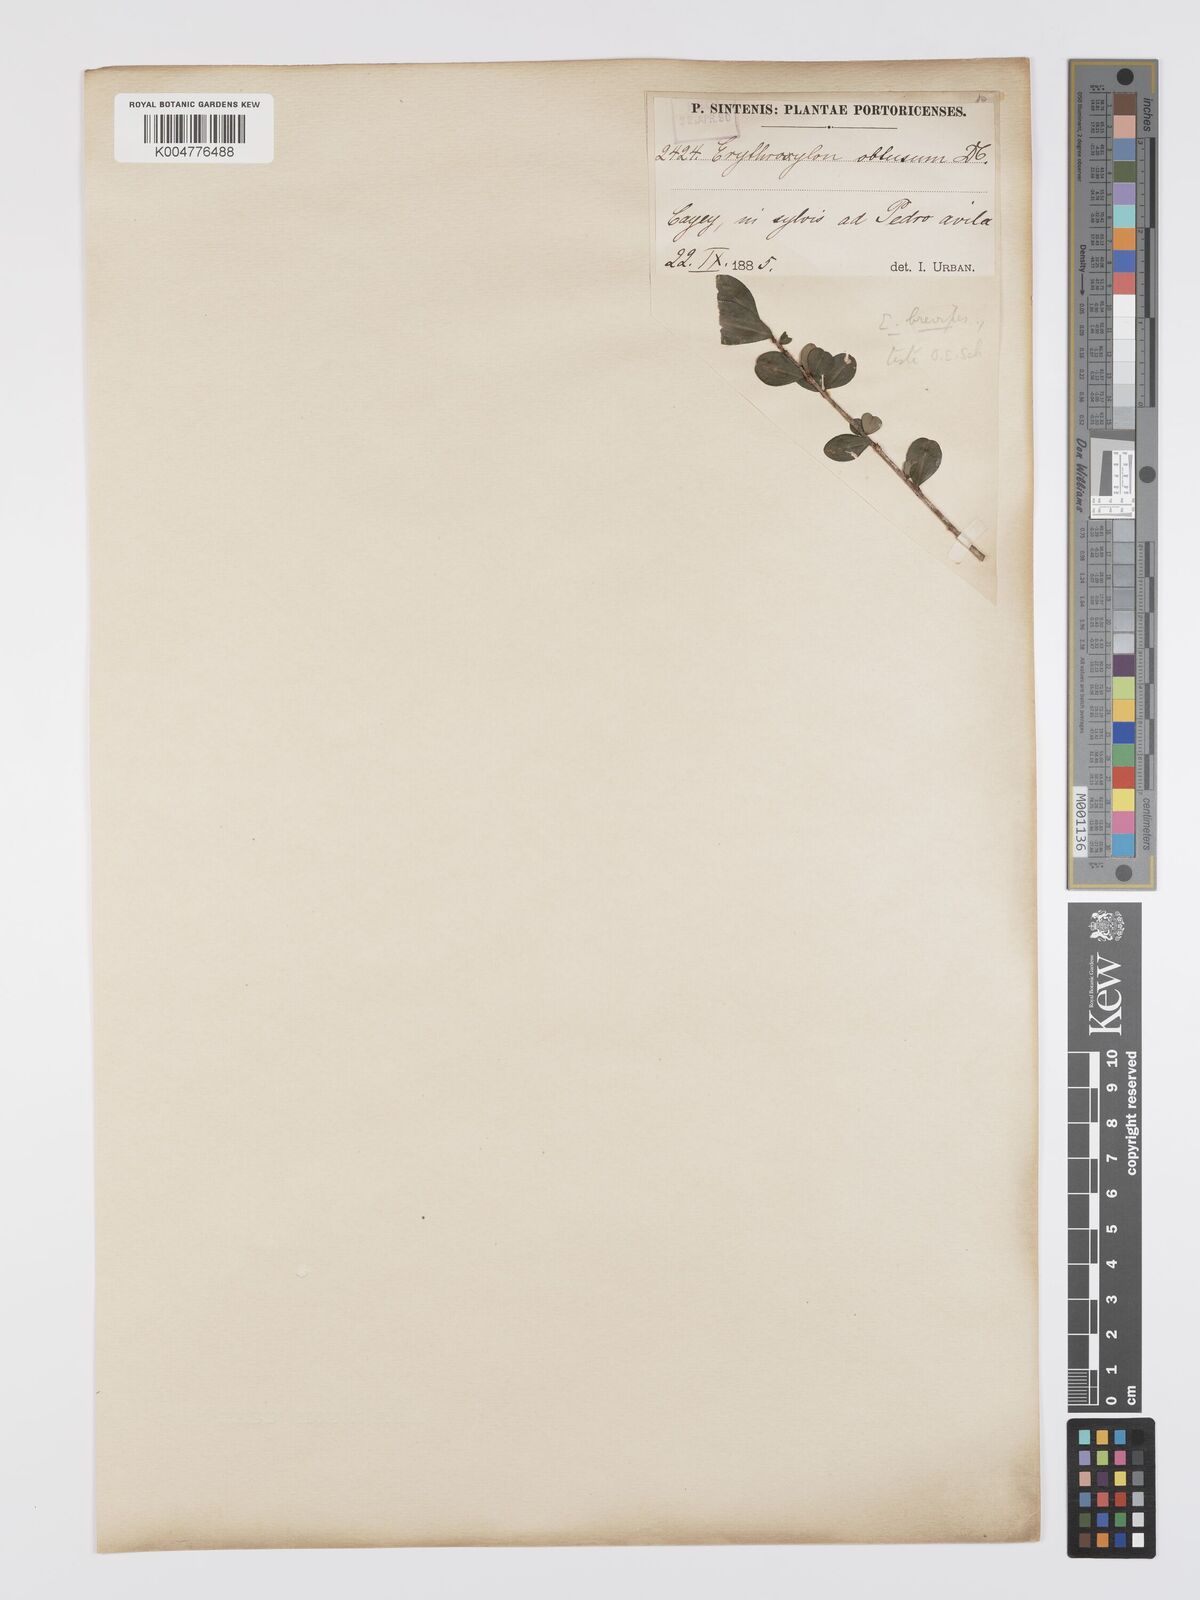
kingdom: Plantae
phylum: Tracheophyta
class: Magnoliopsida
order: Malpighiales
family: Erythroxylaceae
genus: Erythroxylum
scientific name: Erythroxylum brevipes
